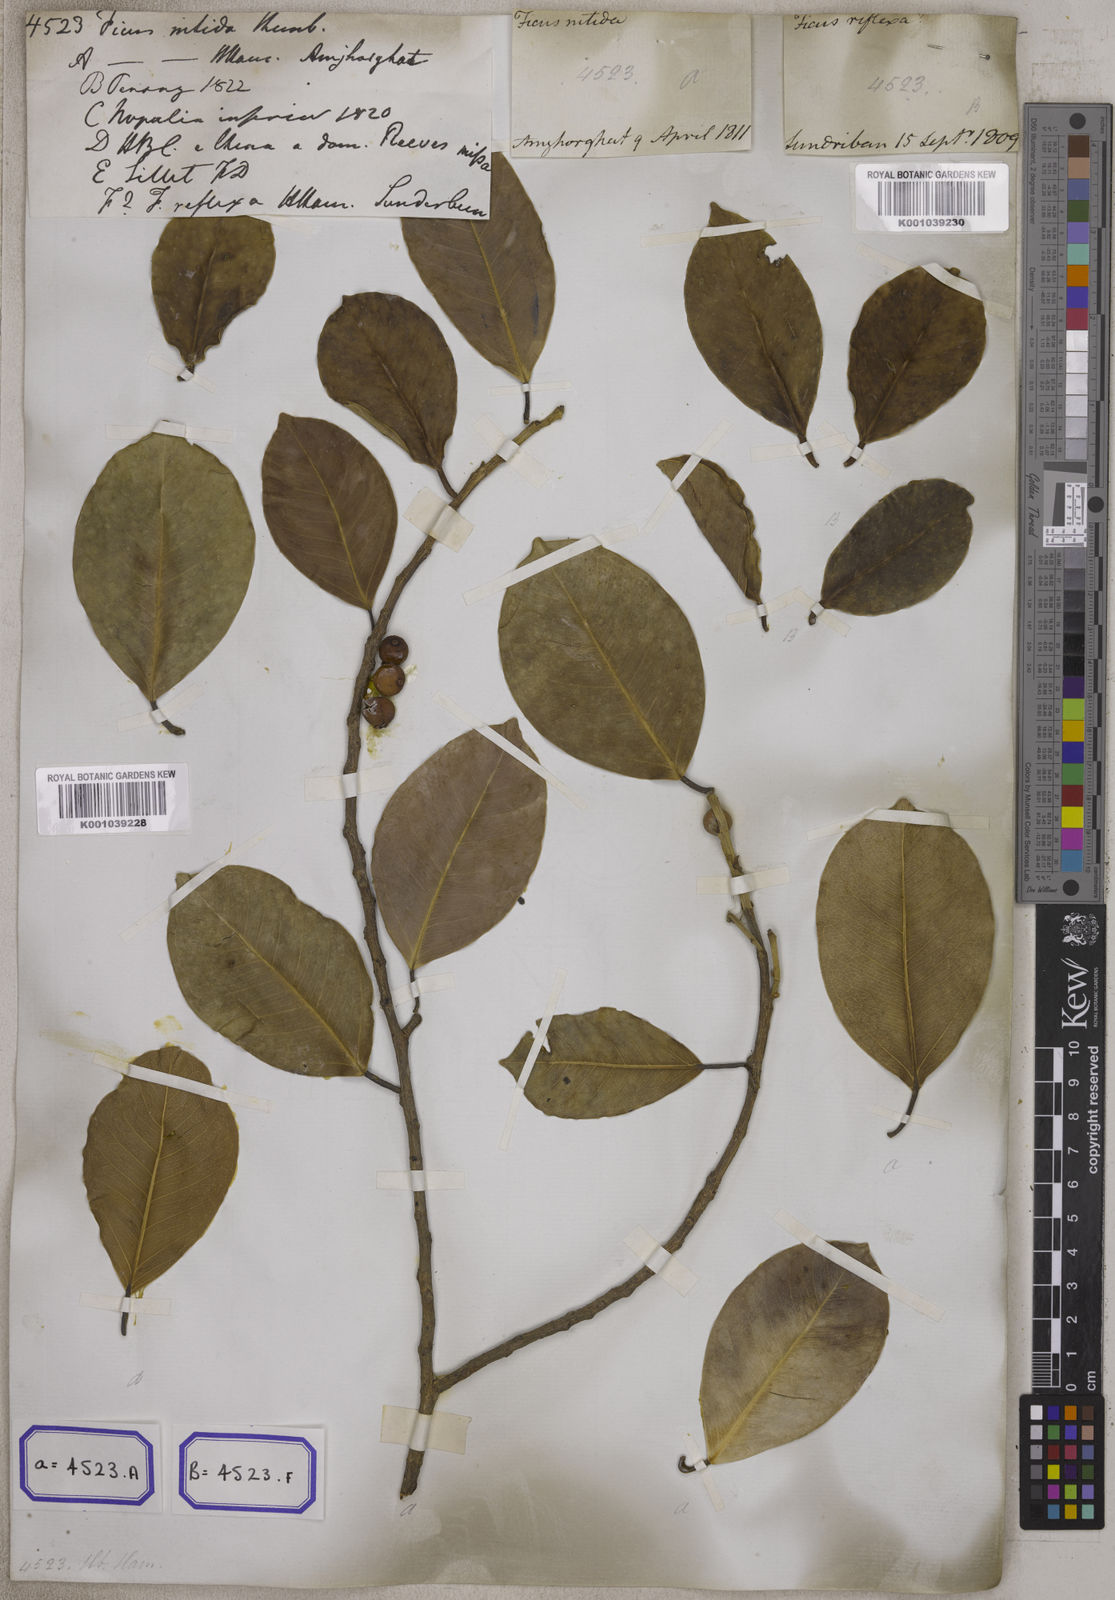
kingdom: Plantae
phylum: Tracheophyta
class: Magnoliopsida
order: Rosales
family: Moraceae
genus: Ficus
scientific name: Ficus benjamina
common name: Weeping fig
